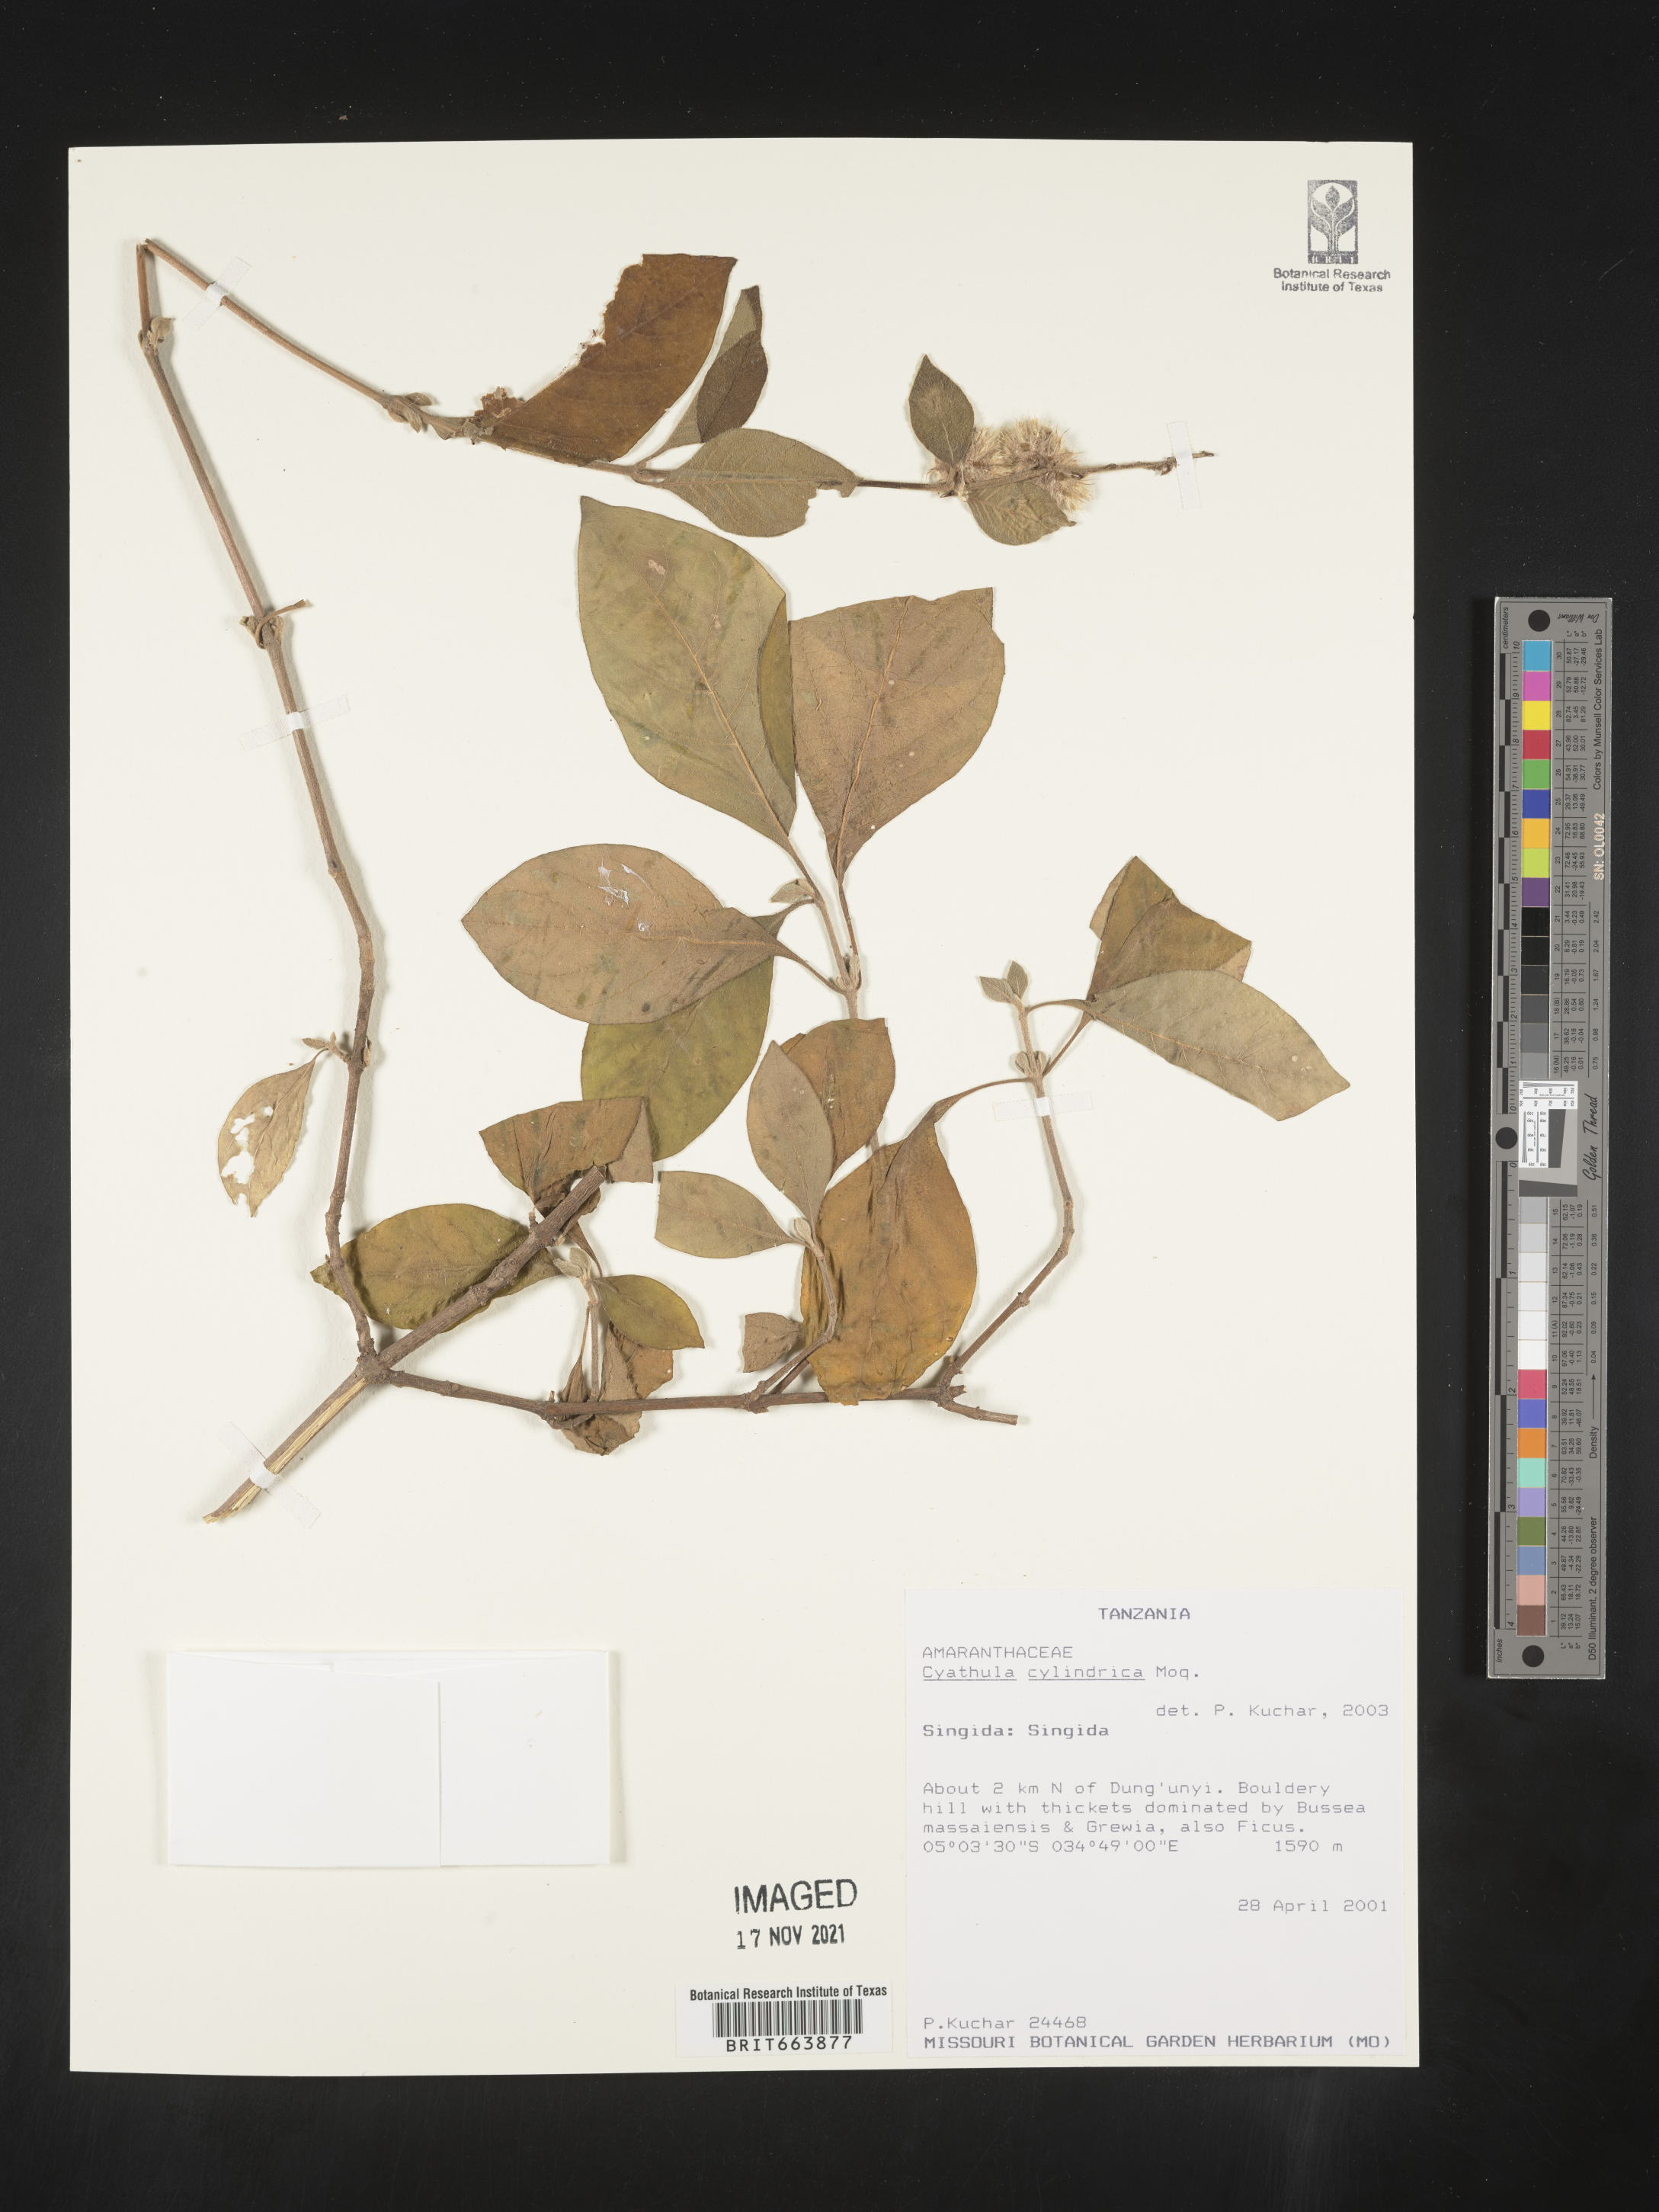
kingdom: Plantae
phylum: Tracheophyta
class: Magnoliopsida
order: Caryophyllales
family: Amaranthaceae
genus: Cyathula
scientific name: Cyathula
